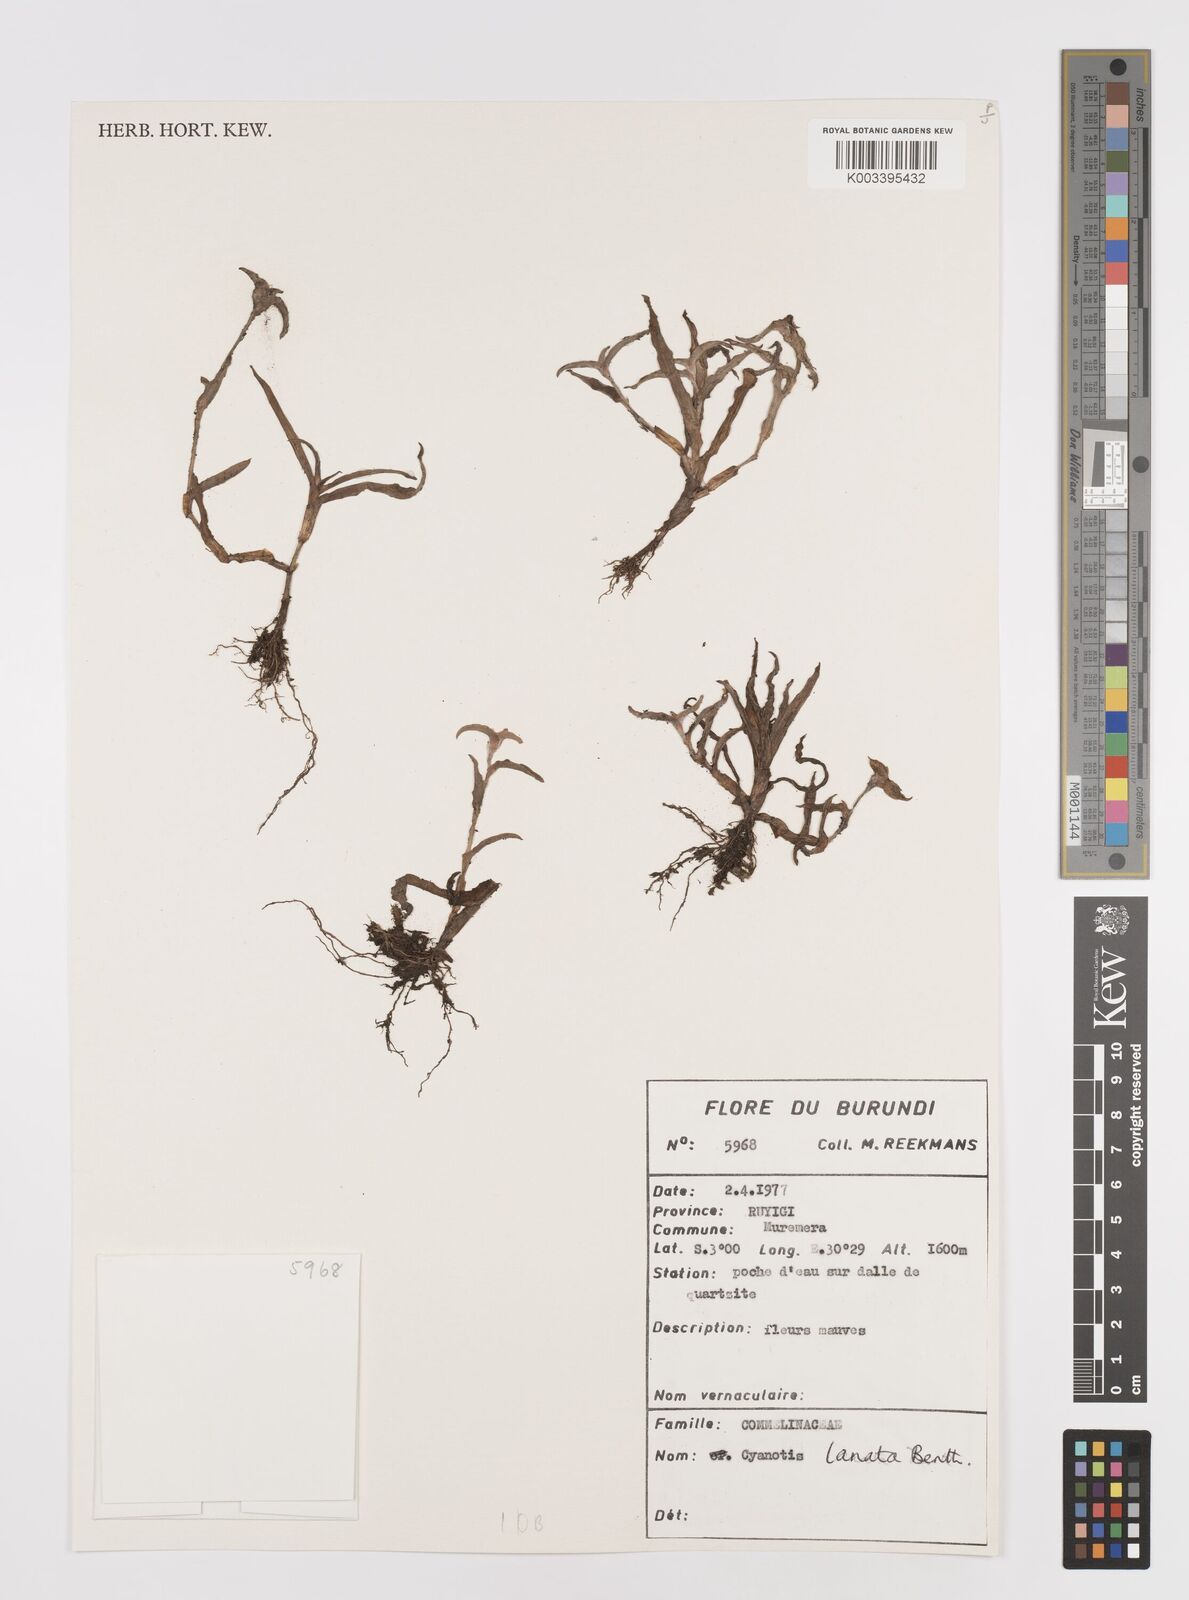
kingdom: Plantae
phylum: Tracheophyta
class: Liliopsida
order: Commelinales
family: Commelinaceae
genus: Cyanotis
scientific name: Cyanotis lanata
